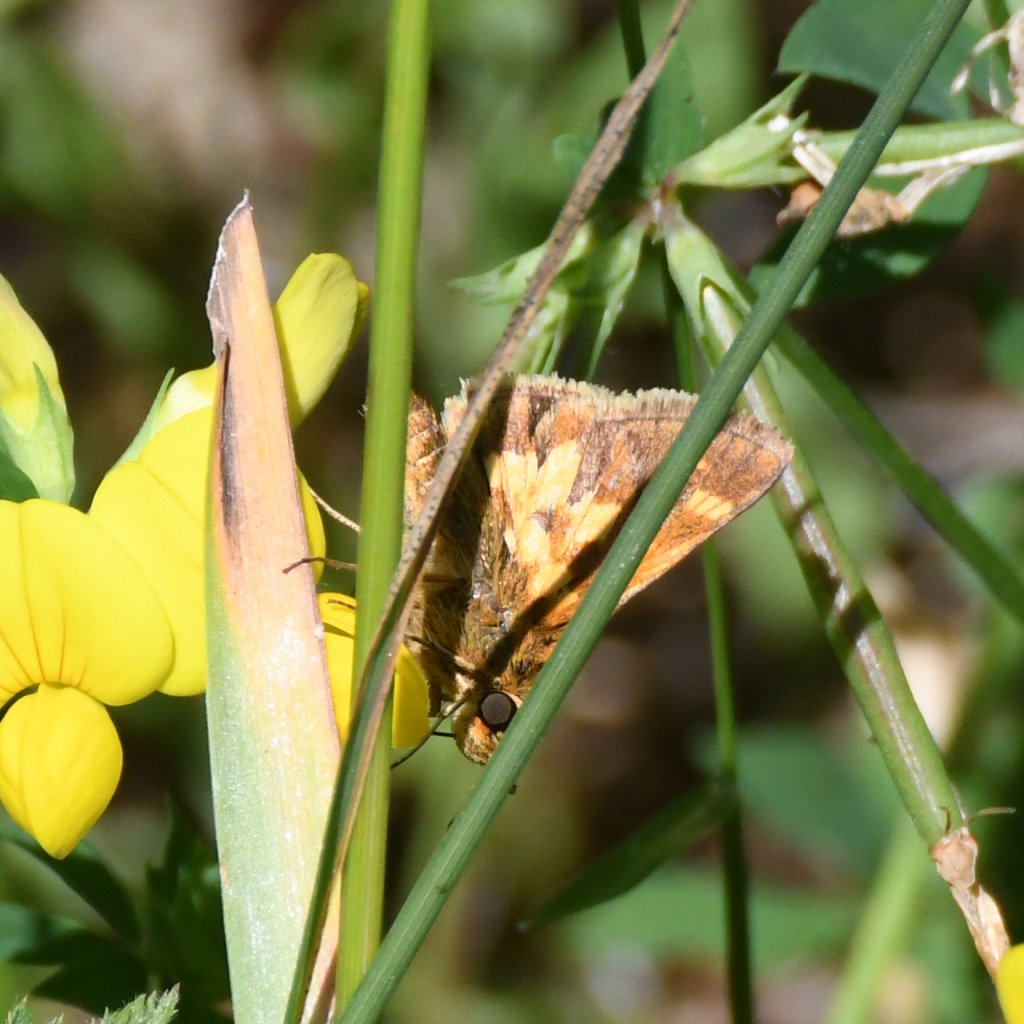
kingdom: Animalia
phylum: Arthropoda
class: Insecta
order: Lepidoptera
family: Hesperiidae
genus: Polites
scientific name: Polites coras
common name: Peck's Skipper
